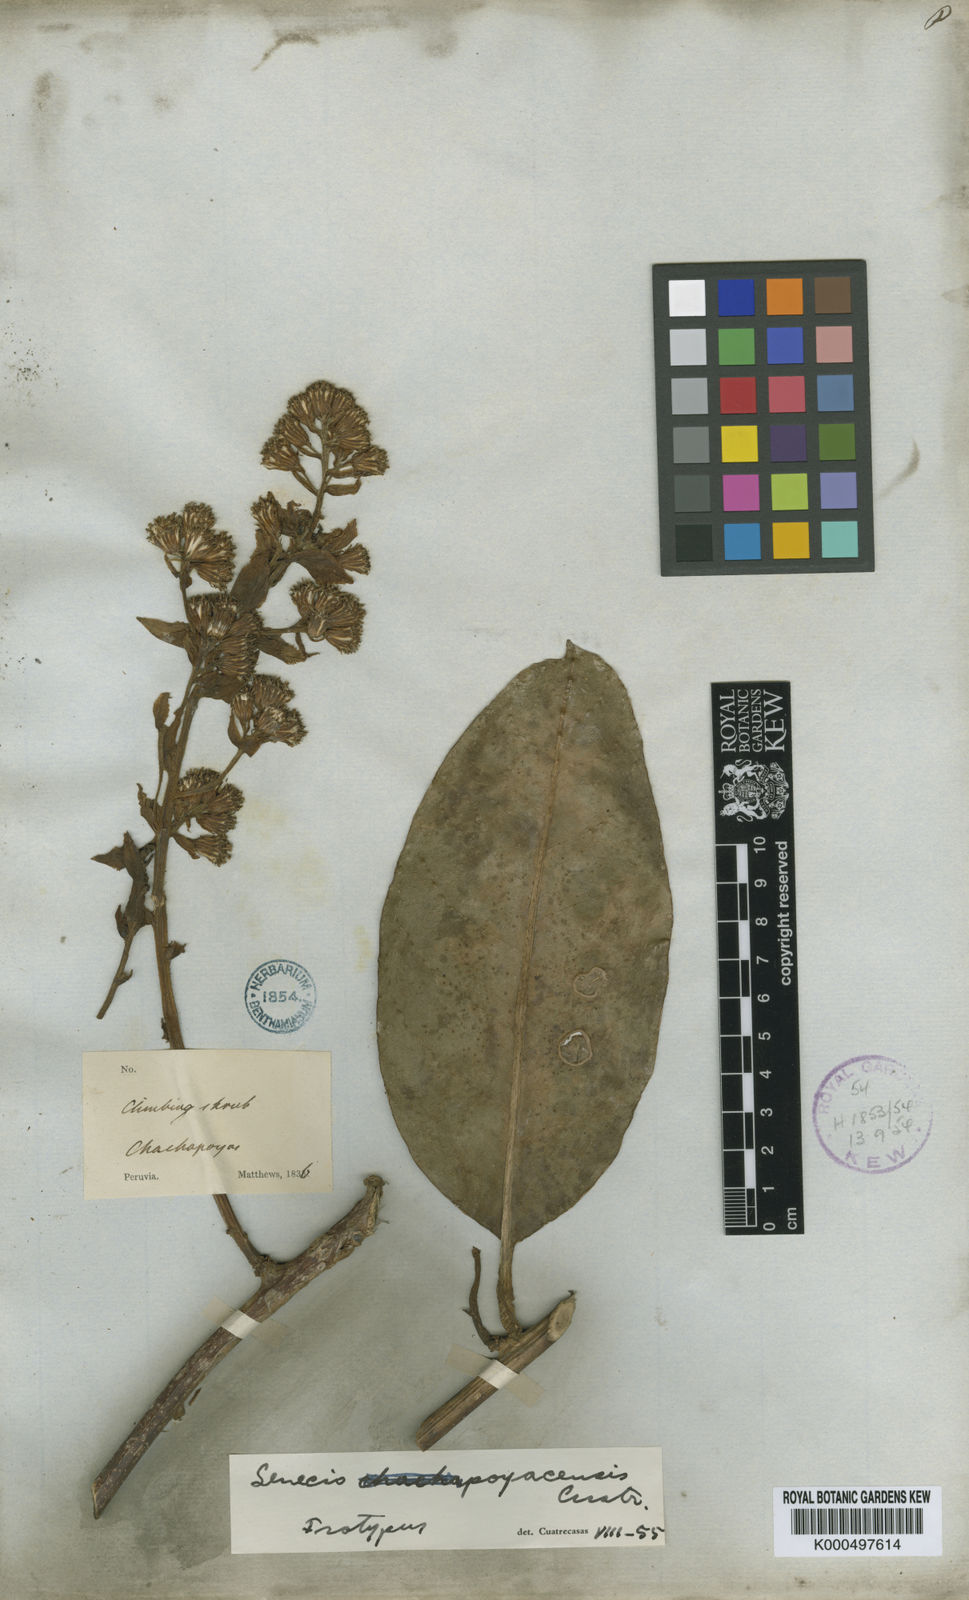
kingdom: Plantae
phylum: Tracheophyta
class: Magnoliopsida
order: Asterales
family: Asteraceae
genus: Pentacalia
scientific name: Pentacalia poyasensis
